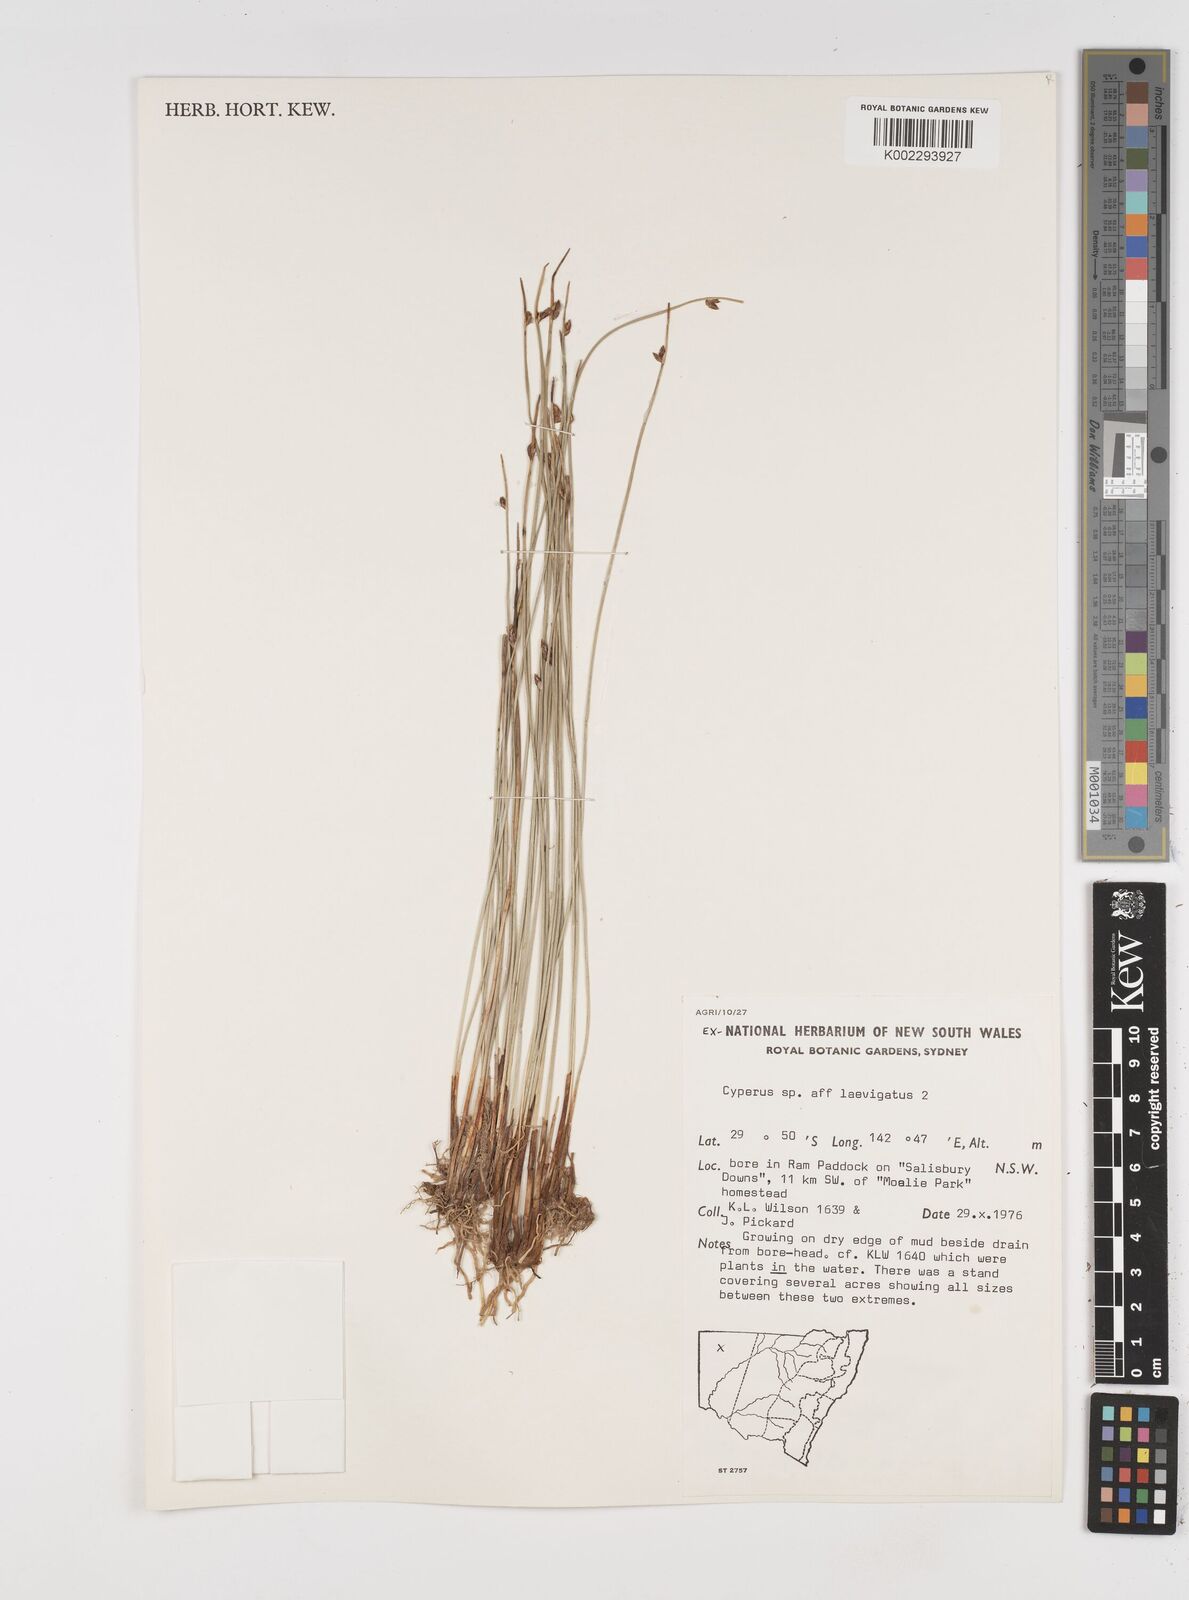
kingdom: Plantae
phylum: Tracheophyta
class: Liliopsida
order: Poales
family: Cyperaceae
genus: Cyperus
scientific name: Cyperus laevigatus
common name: Smooth flat sedge
